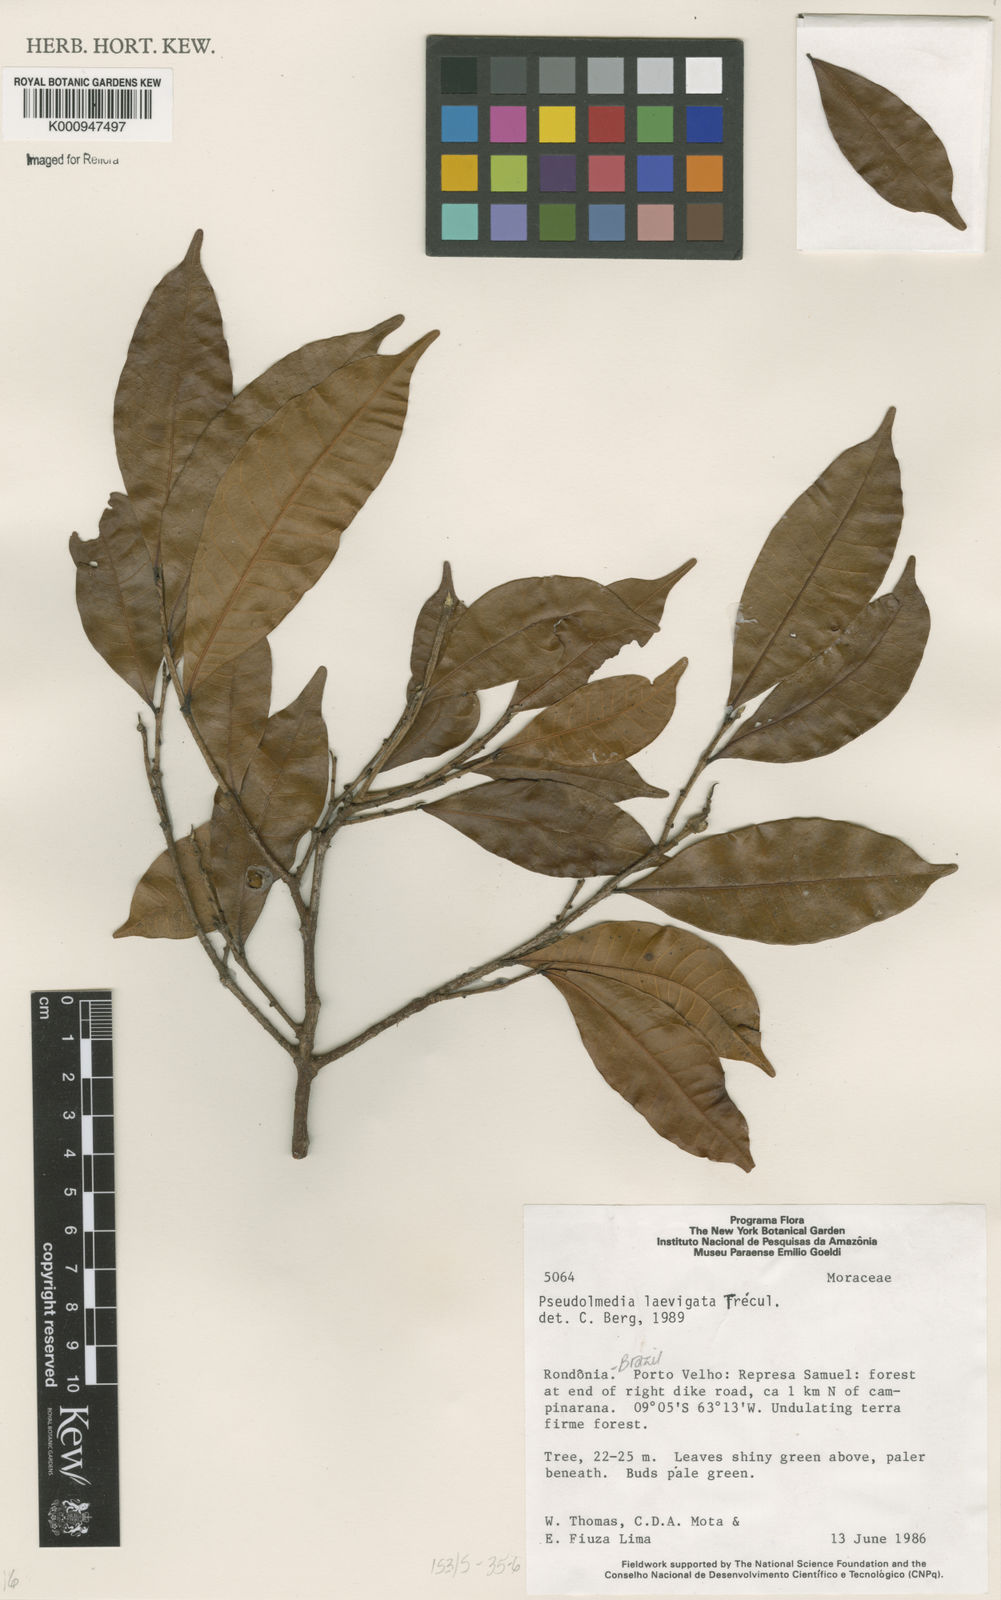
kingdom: Plantae
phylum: Tracheophyta
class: Magnoliopsida
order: Rosales
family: Moraceae
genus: Pseudolmedia
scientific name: Pseudolmedia
